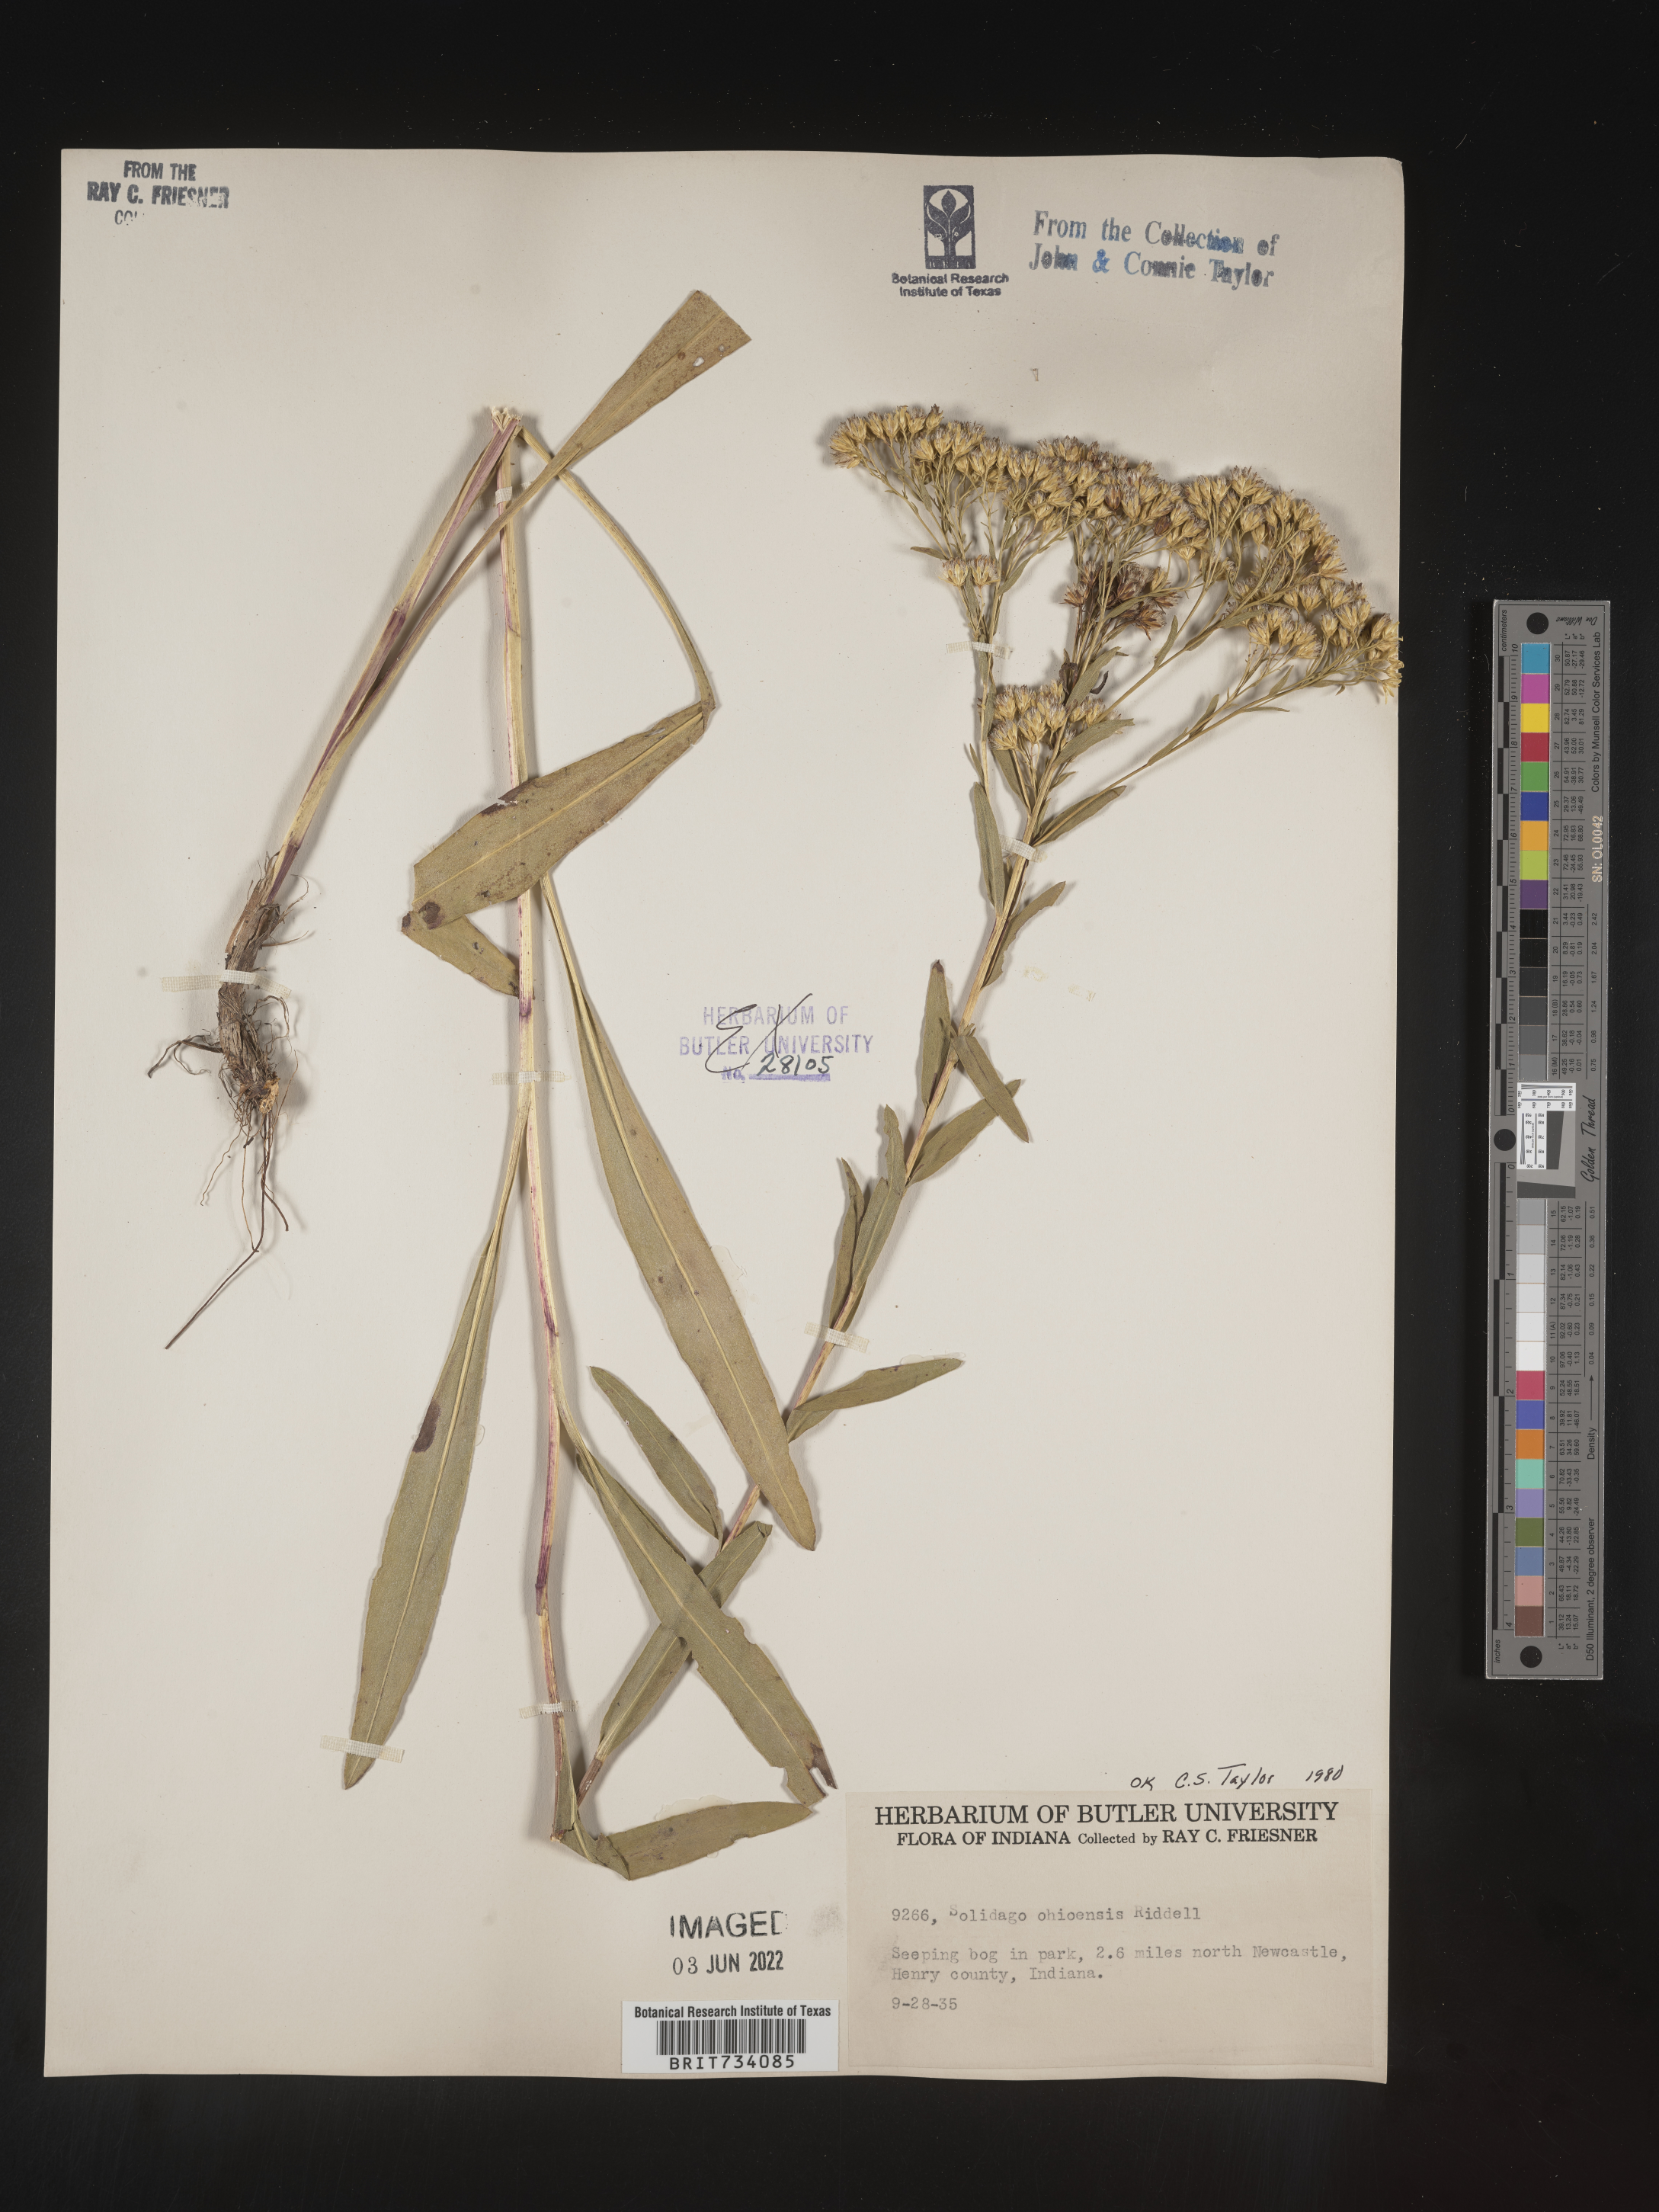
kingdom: Plantae
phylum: Tracheophyta
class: Magnoliopsida
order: Asterales
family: Asteraceae
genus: Solidago
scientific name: Solidago nitida
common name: Shiny goldenrod
